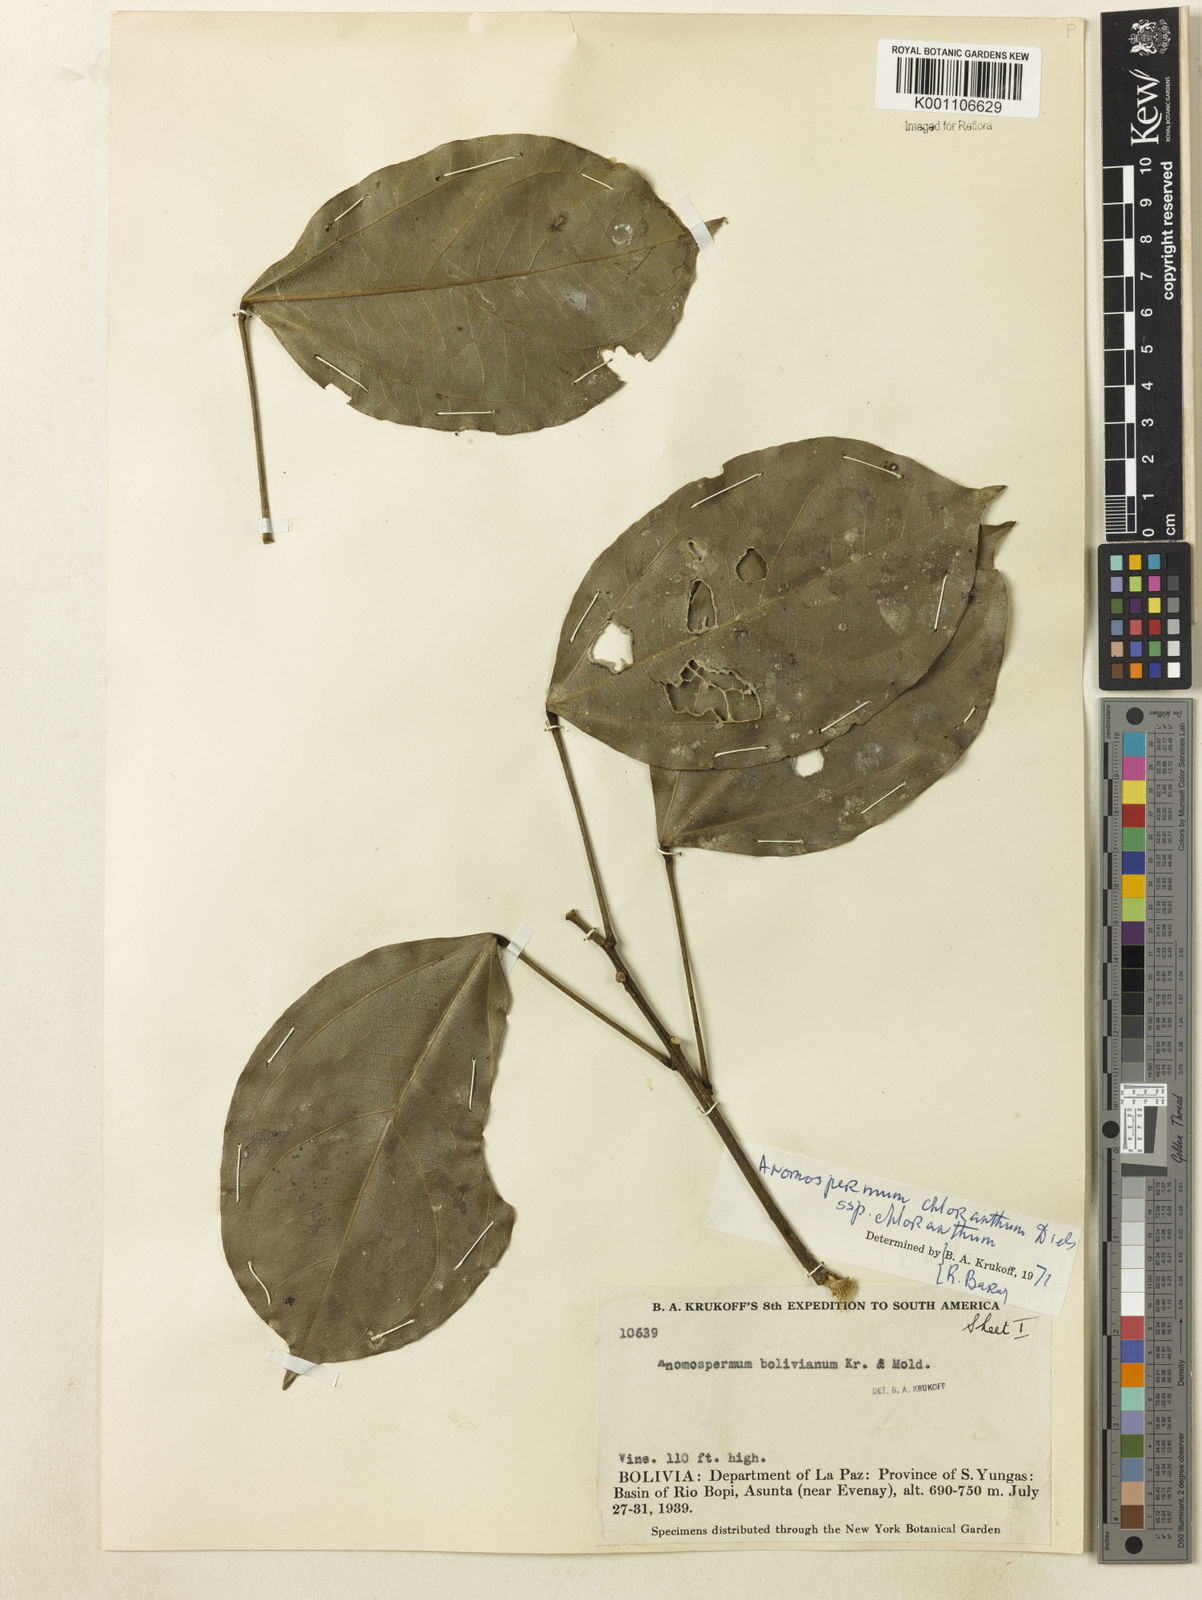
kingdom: Plantae
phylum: Tracheophyta
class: Magnoliopsida
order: Ranunculales
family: Menispermaceae
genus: Anomospermum
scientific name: Anomospermum chloranthum
